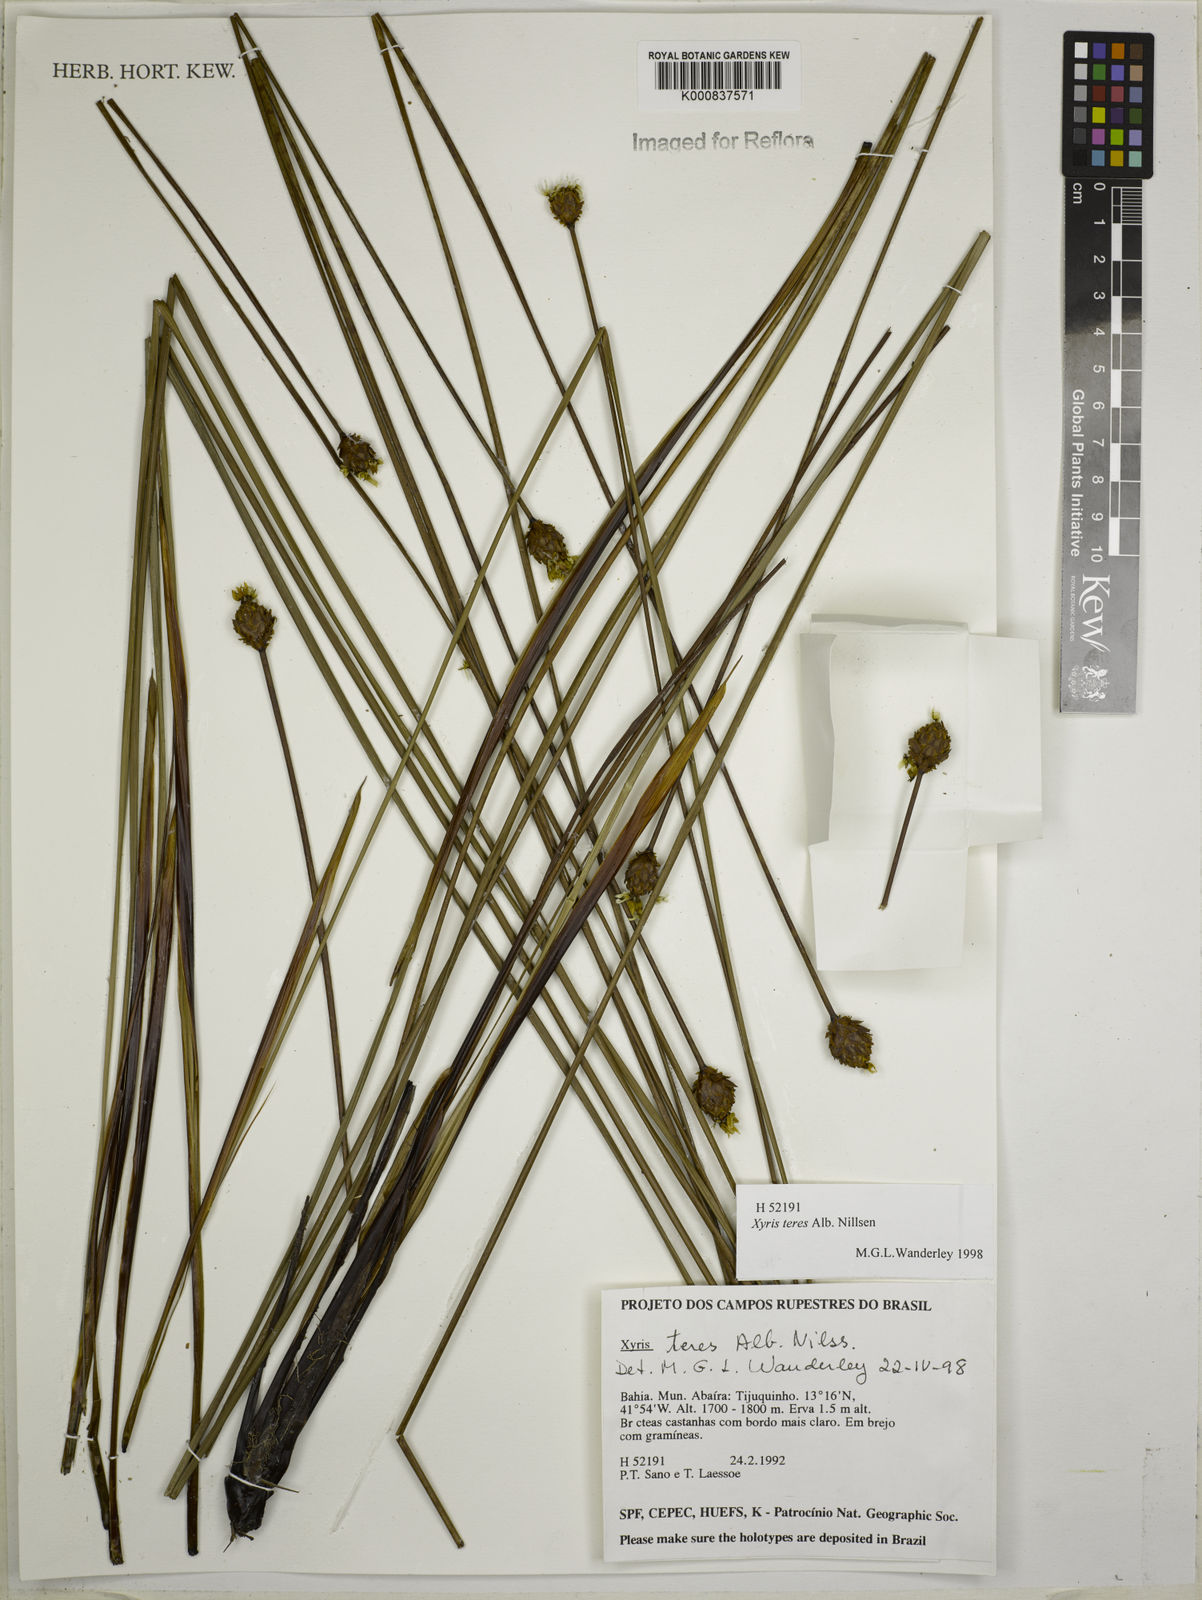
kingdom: Plantae
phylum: Tracheophyta
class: Liliopsida
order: Poales
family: Xyridaceae
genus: Xyris
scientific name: Xyris teres
